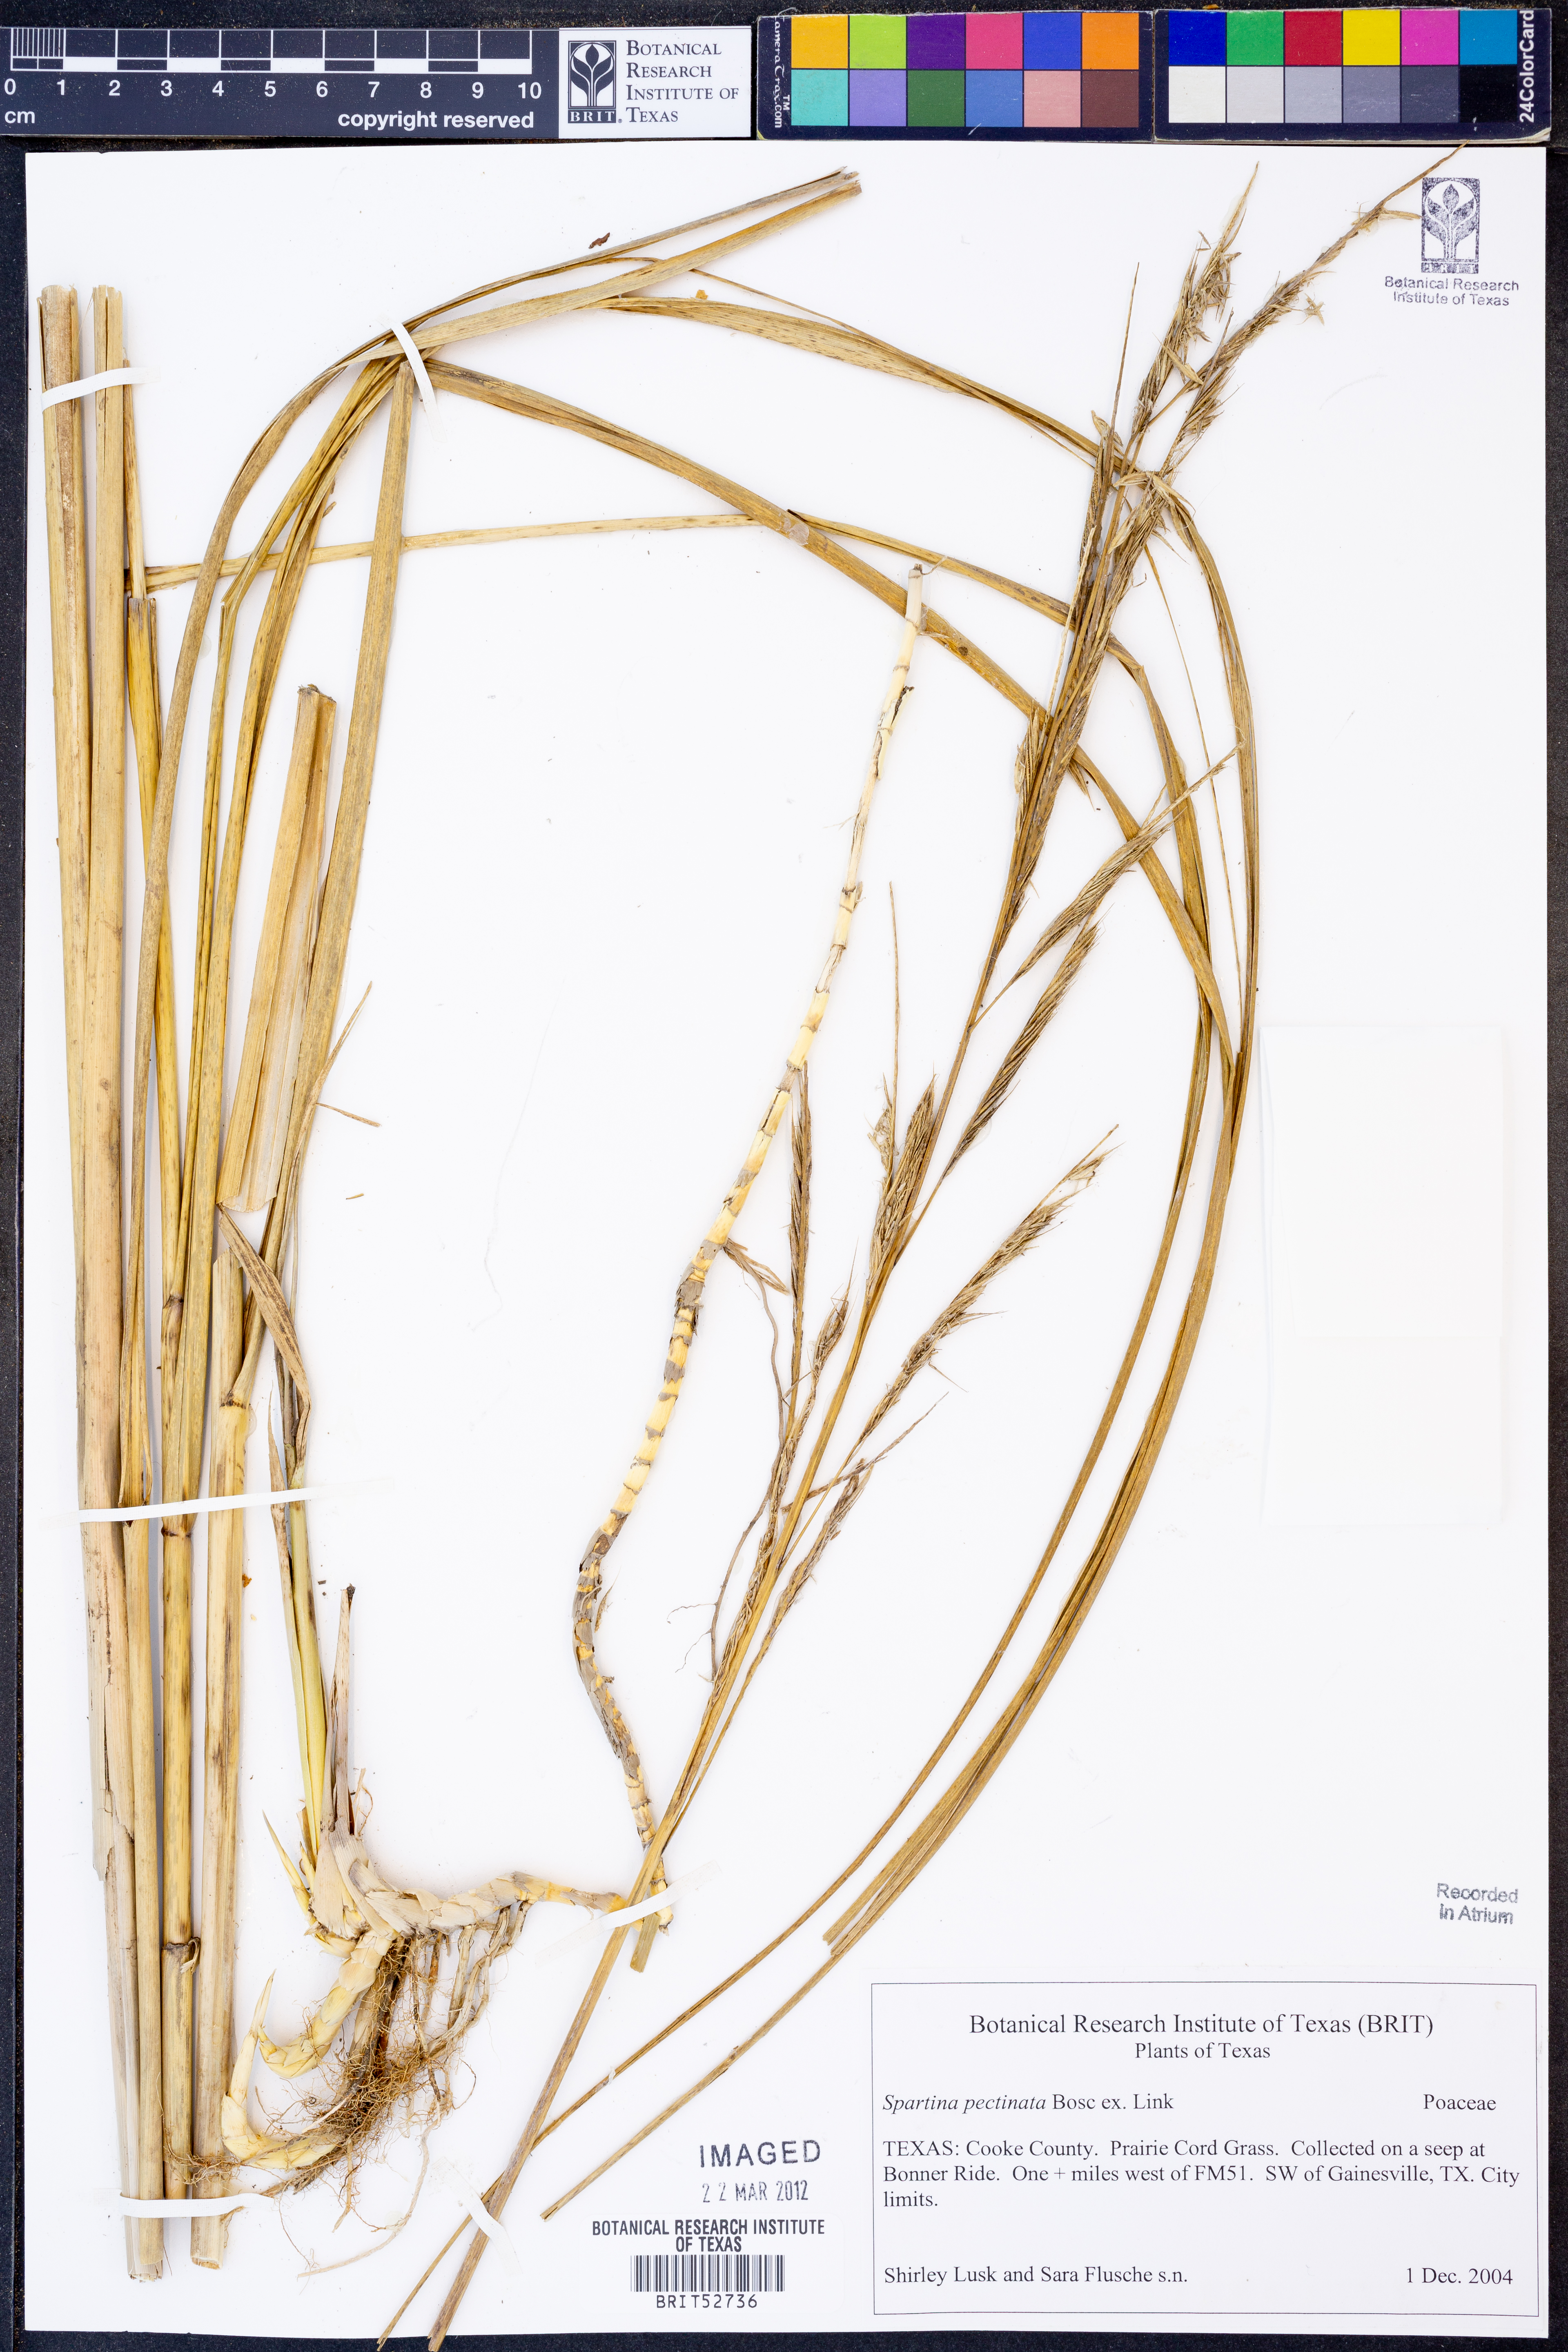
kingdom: Plantae
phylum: Tracheophyta
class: Liliopsida
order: Poales
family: Poaceae
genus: Sporobolus
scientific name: Sporobolus michauxianus
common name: Freshwater cordgrass
